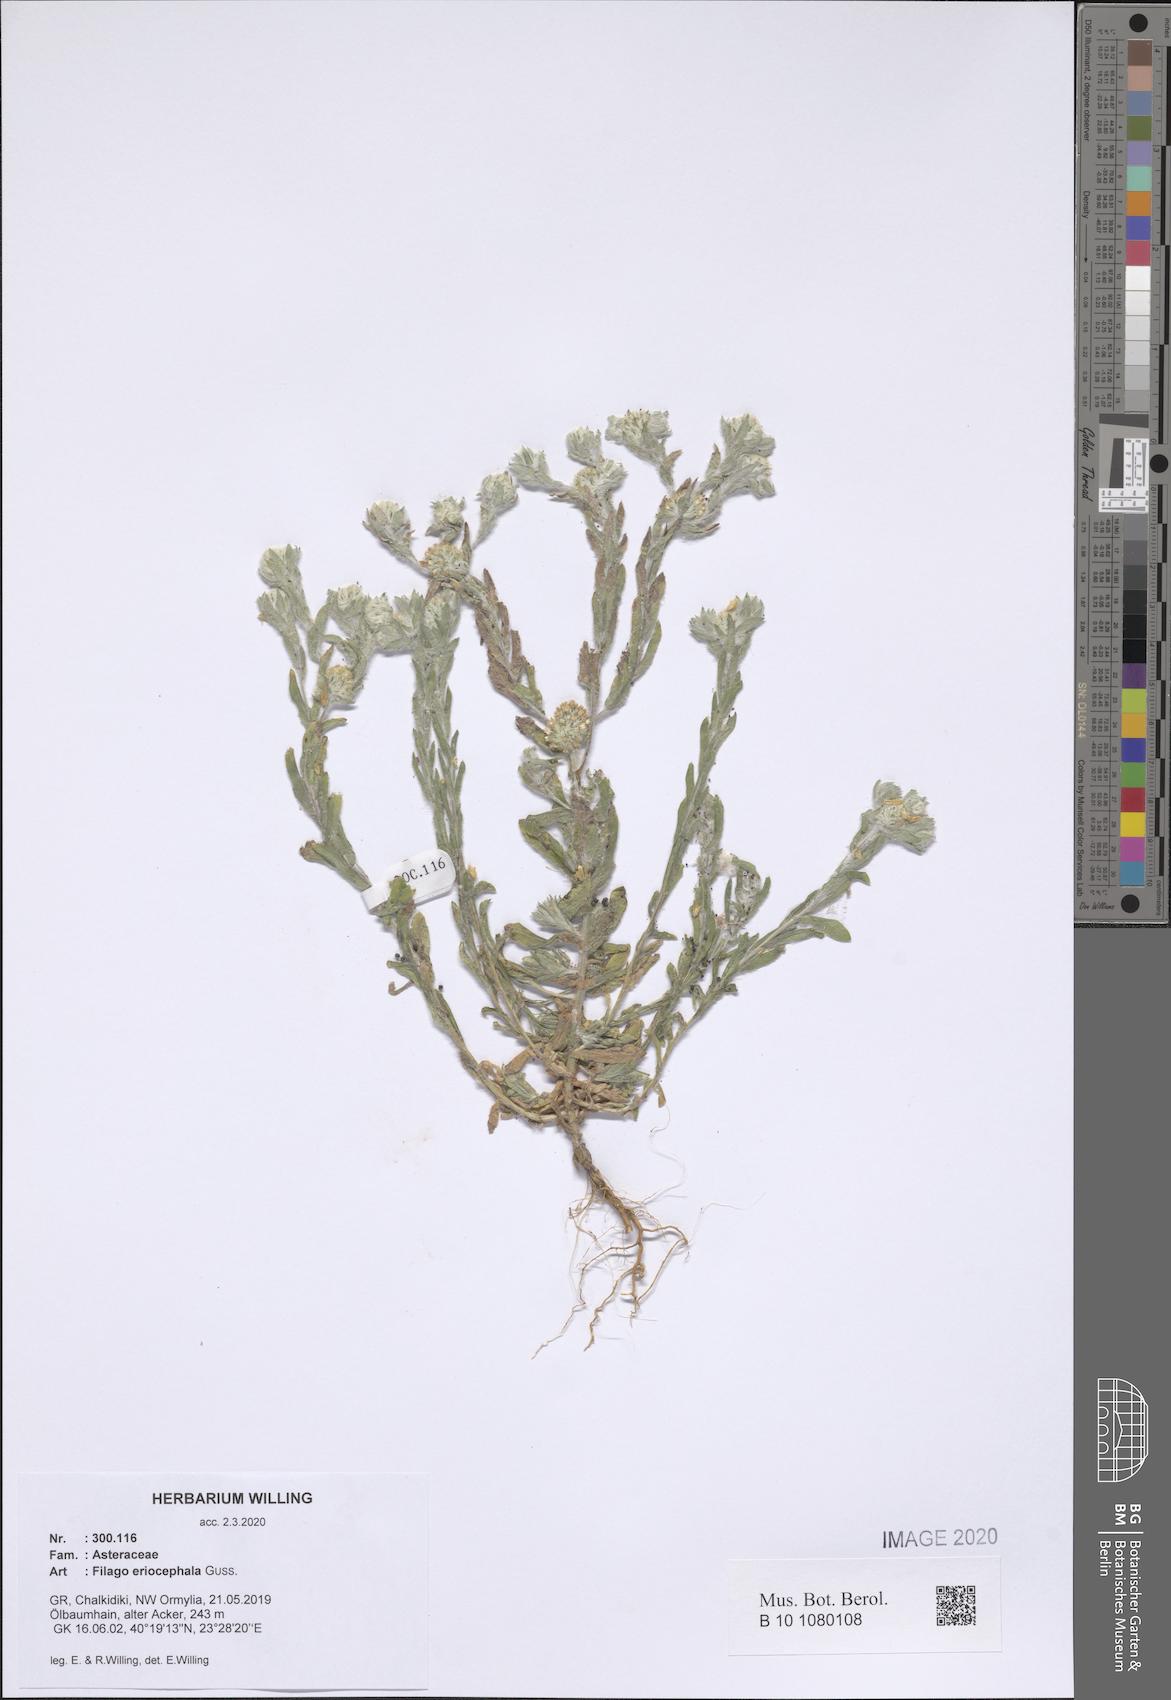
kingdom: Plantae
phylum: Tracheophyta
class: Magnoliopsida
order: Asterales
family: Asteraceae
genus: Filago
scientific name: Filago eriocephala
